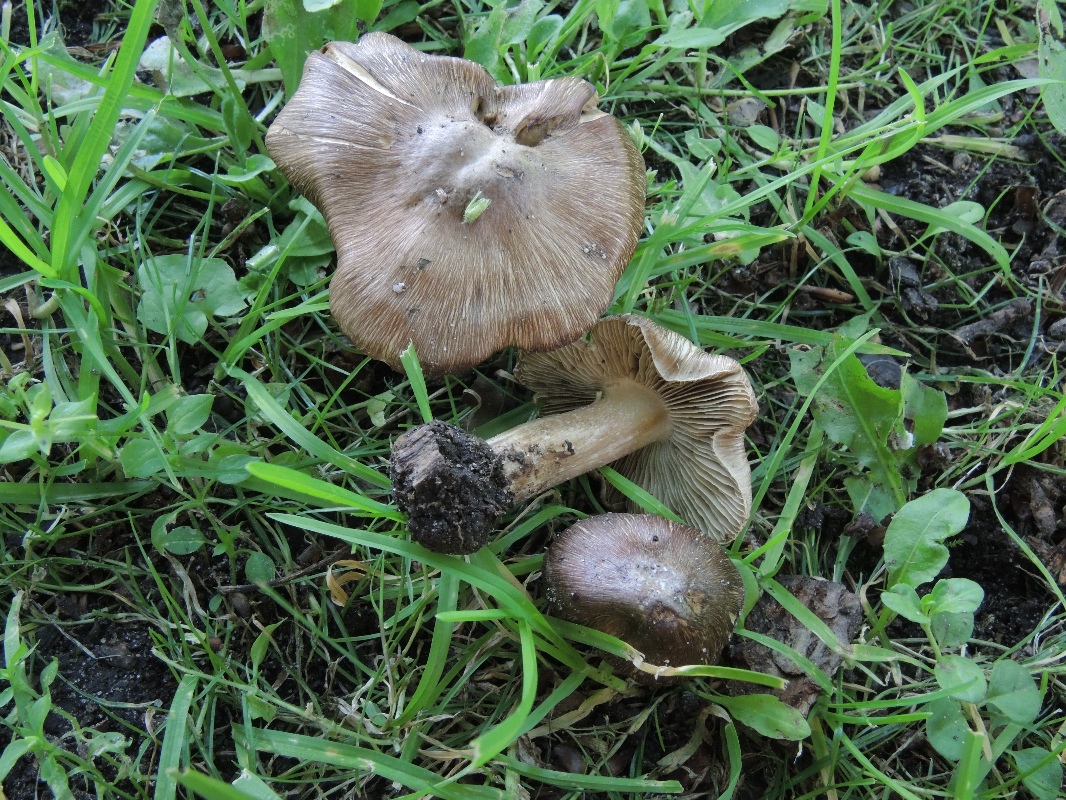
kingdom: Fungi
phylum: Basidiomycota
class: Agaricomycetes
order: Agaricales
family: Inocybaceae
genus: Inosperma
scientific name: Inosperma
